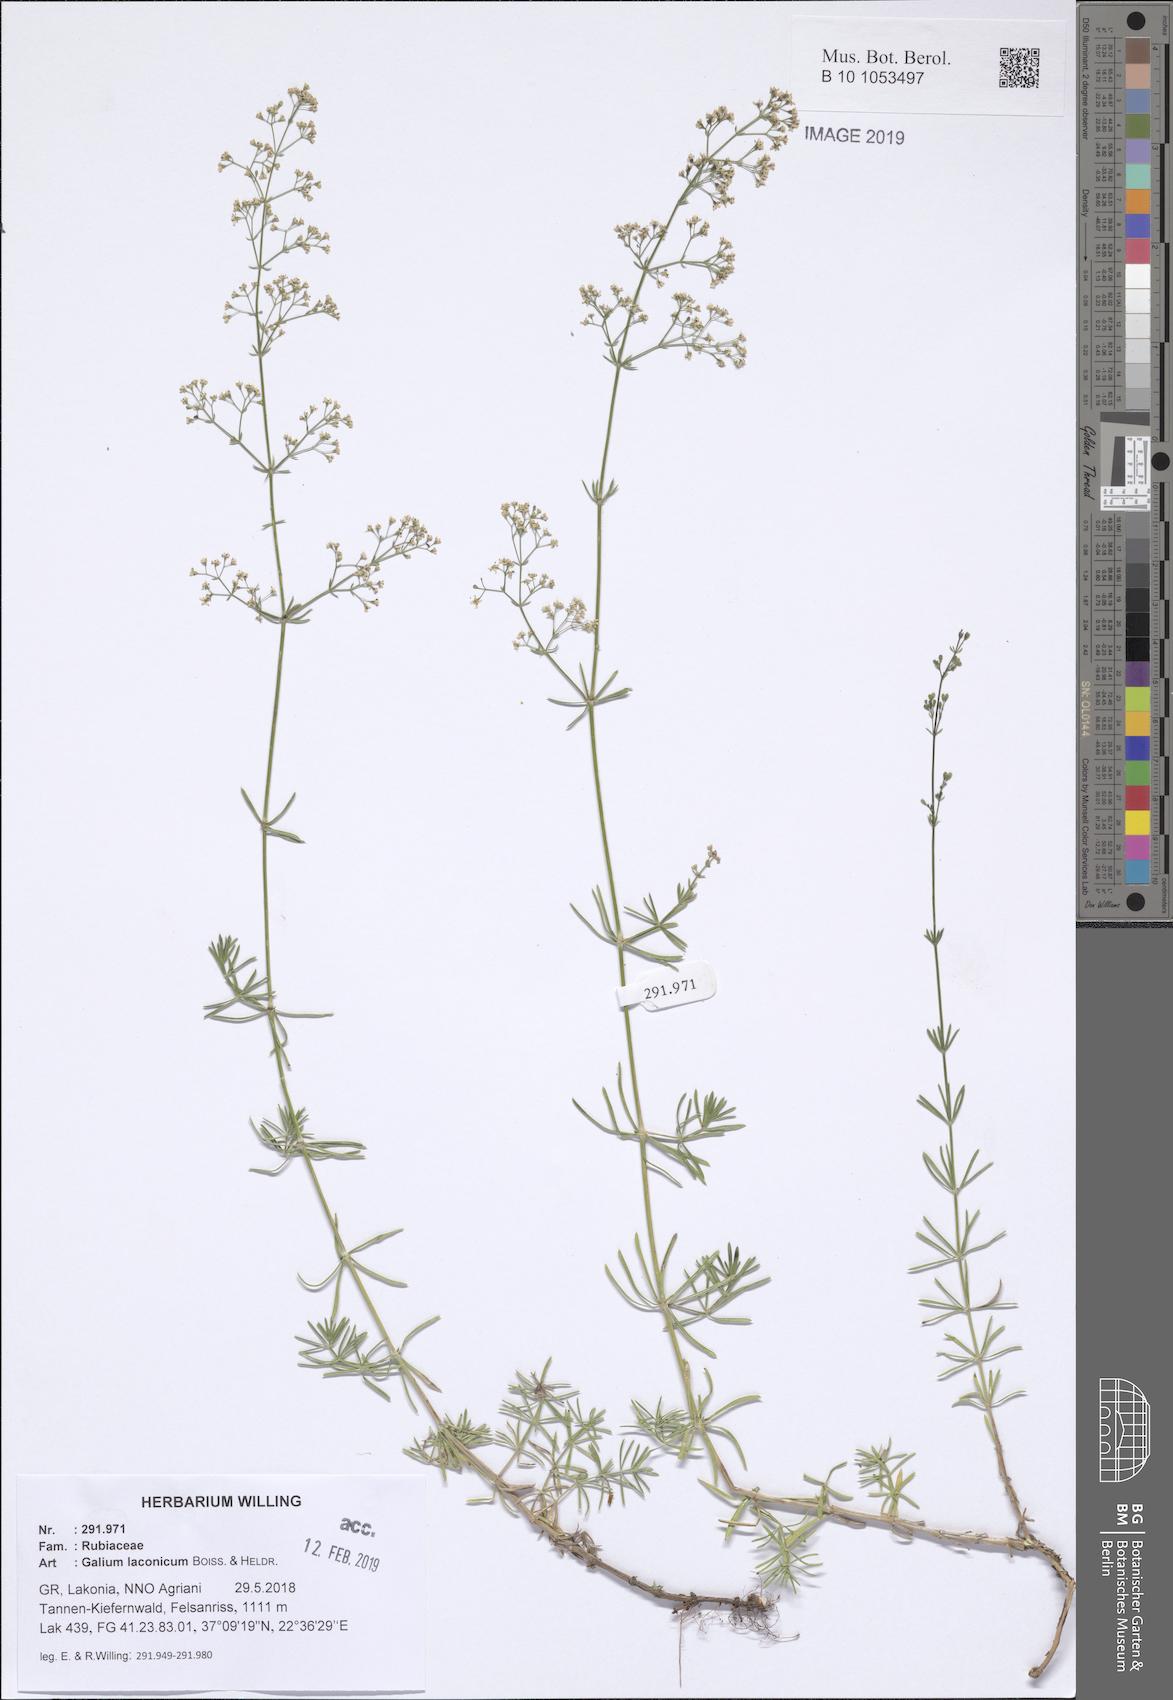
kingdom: Plantae
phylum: Tracheophyta
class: Magnoliopsida
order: Gentianales
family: Rubiaceae
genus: Galium
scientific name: Galium laconicum
